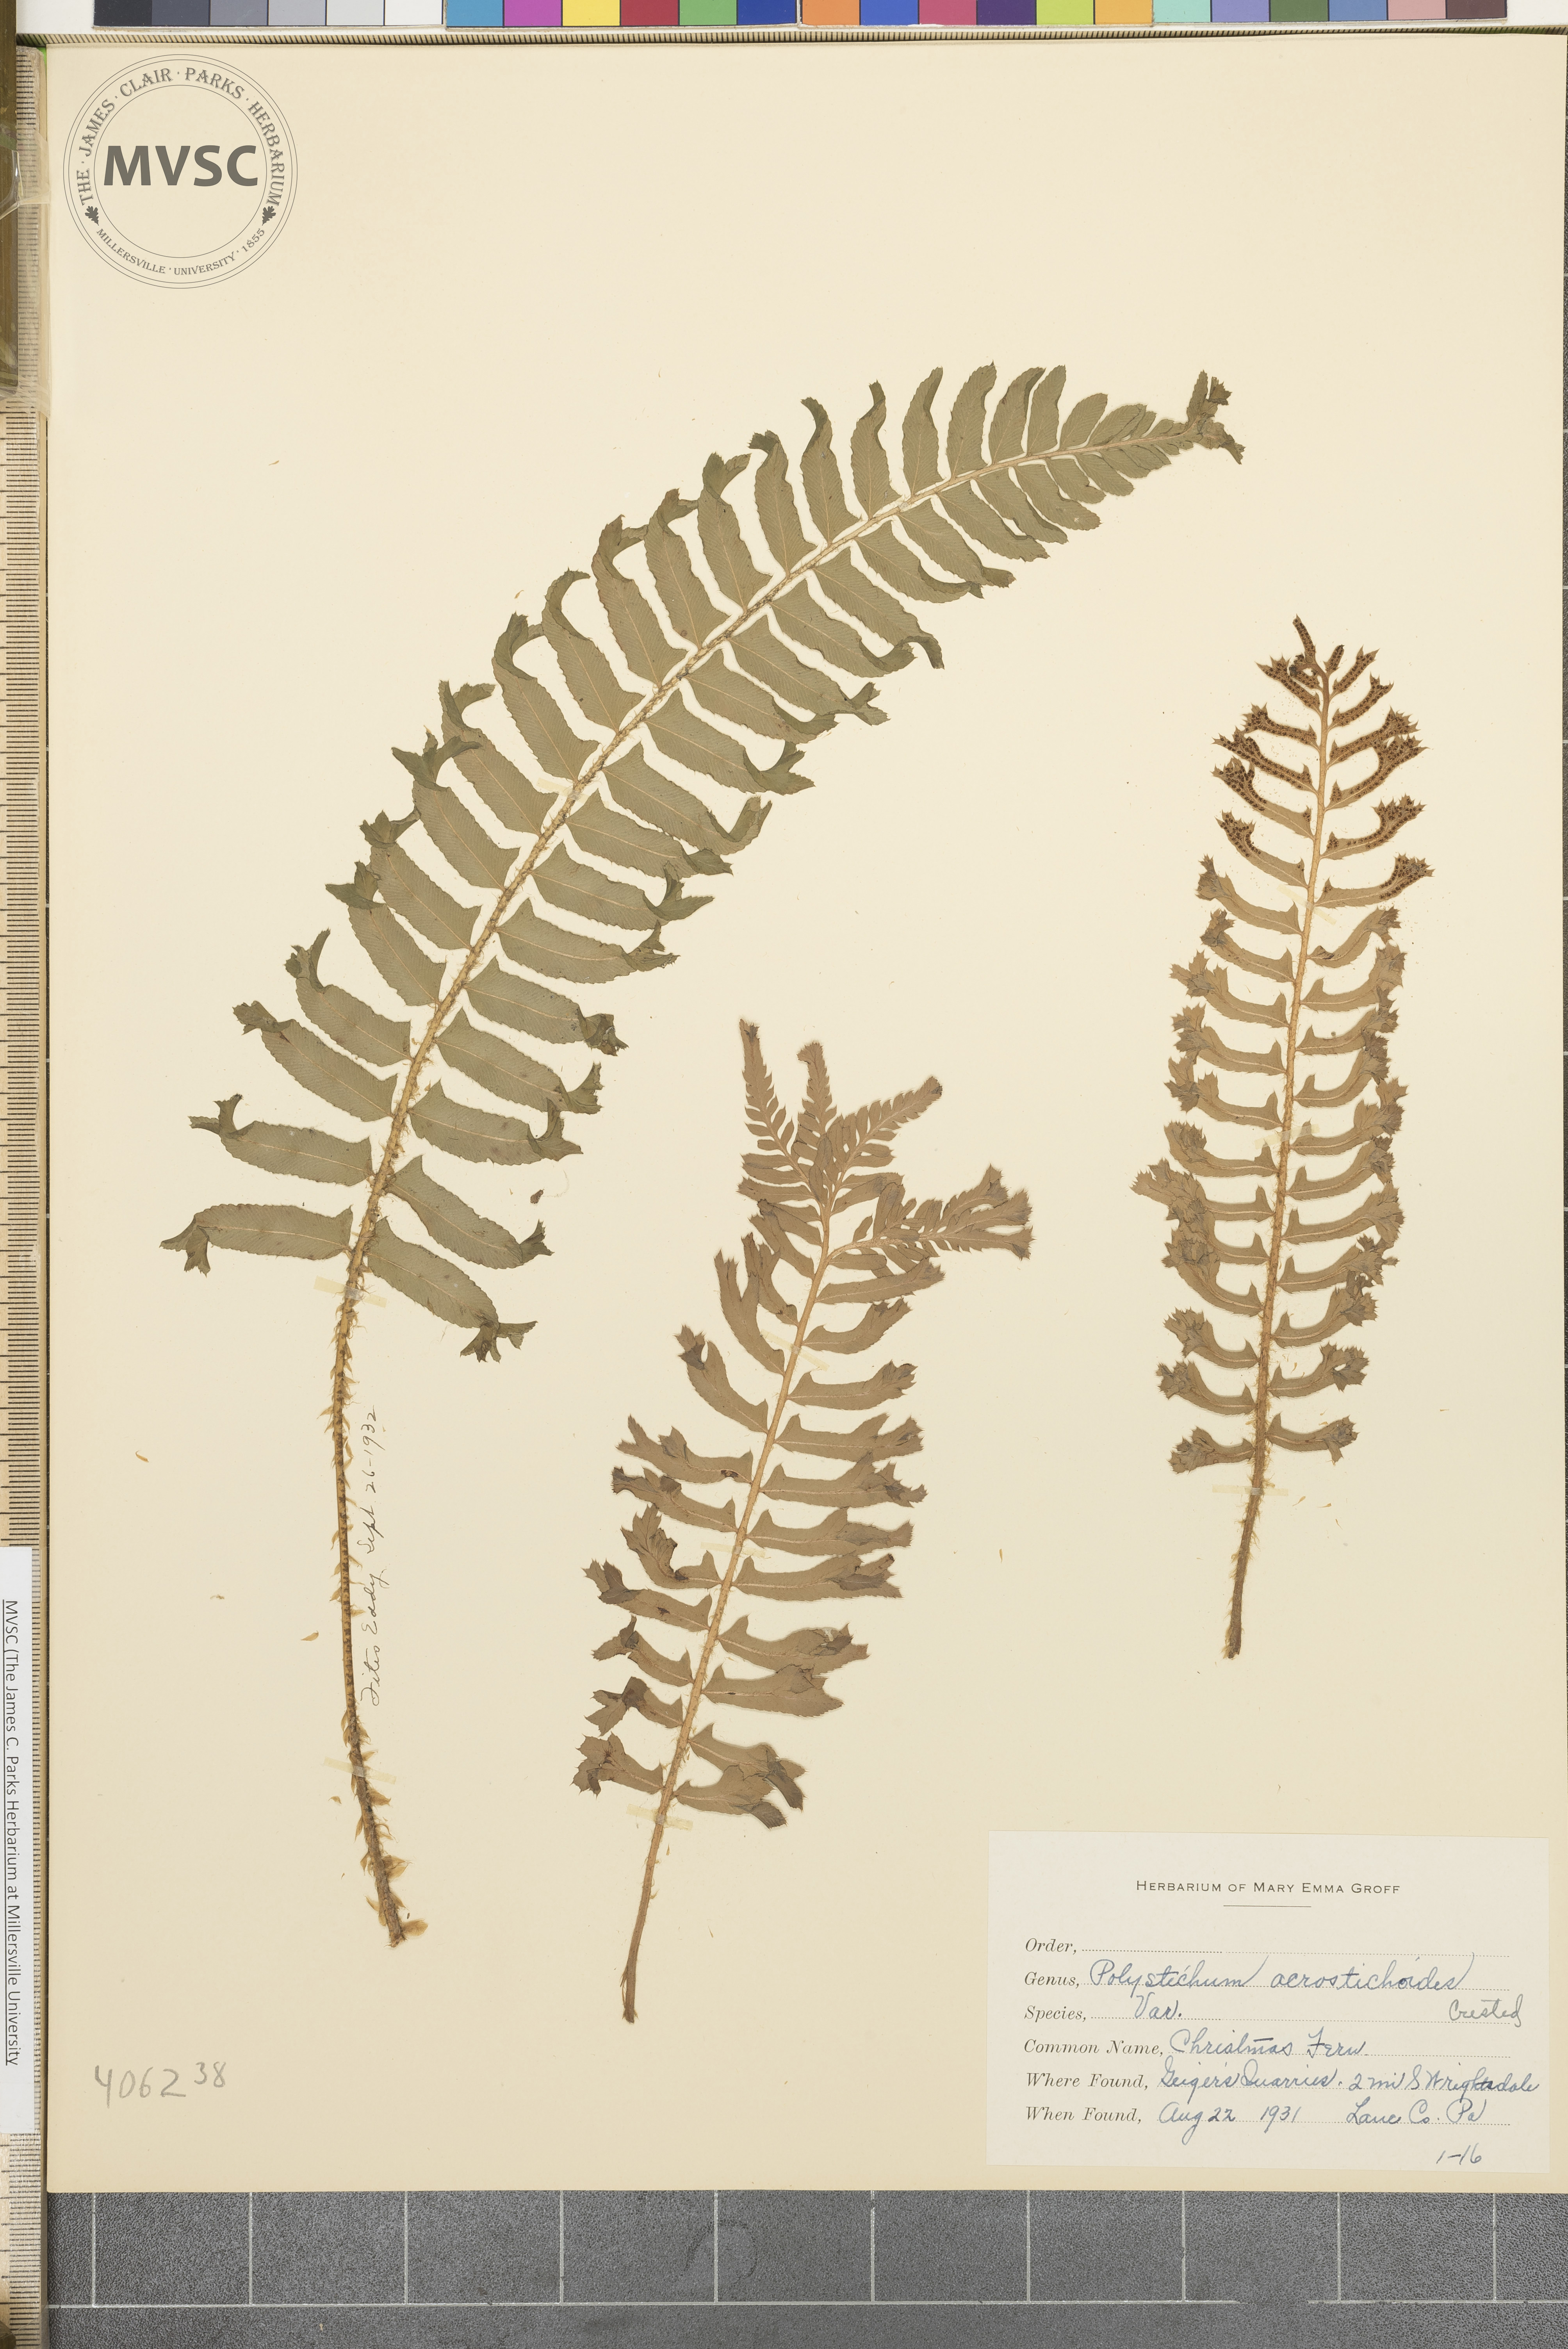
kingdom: Plantae
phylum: Tracheophyta
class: Polypodiopsida
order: Polypodiales
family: Dryopteridaceae
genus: Polystichum
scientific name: Polystichum acrostichoides
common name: Christmas fern
